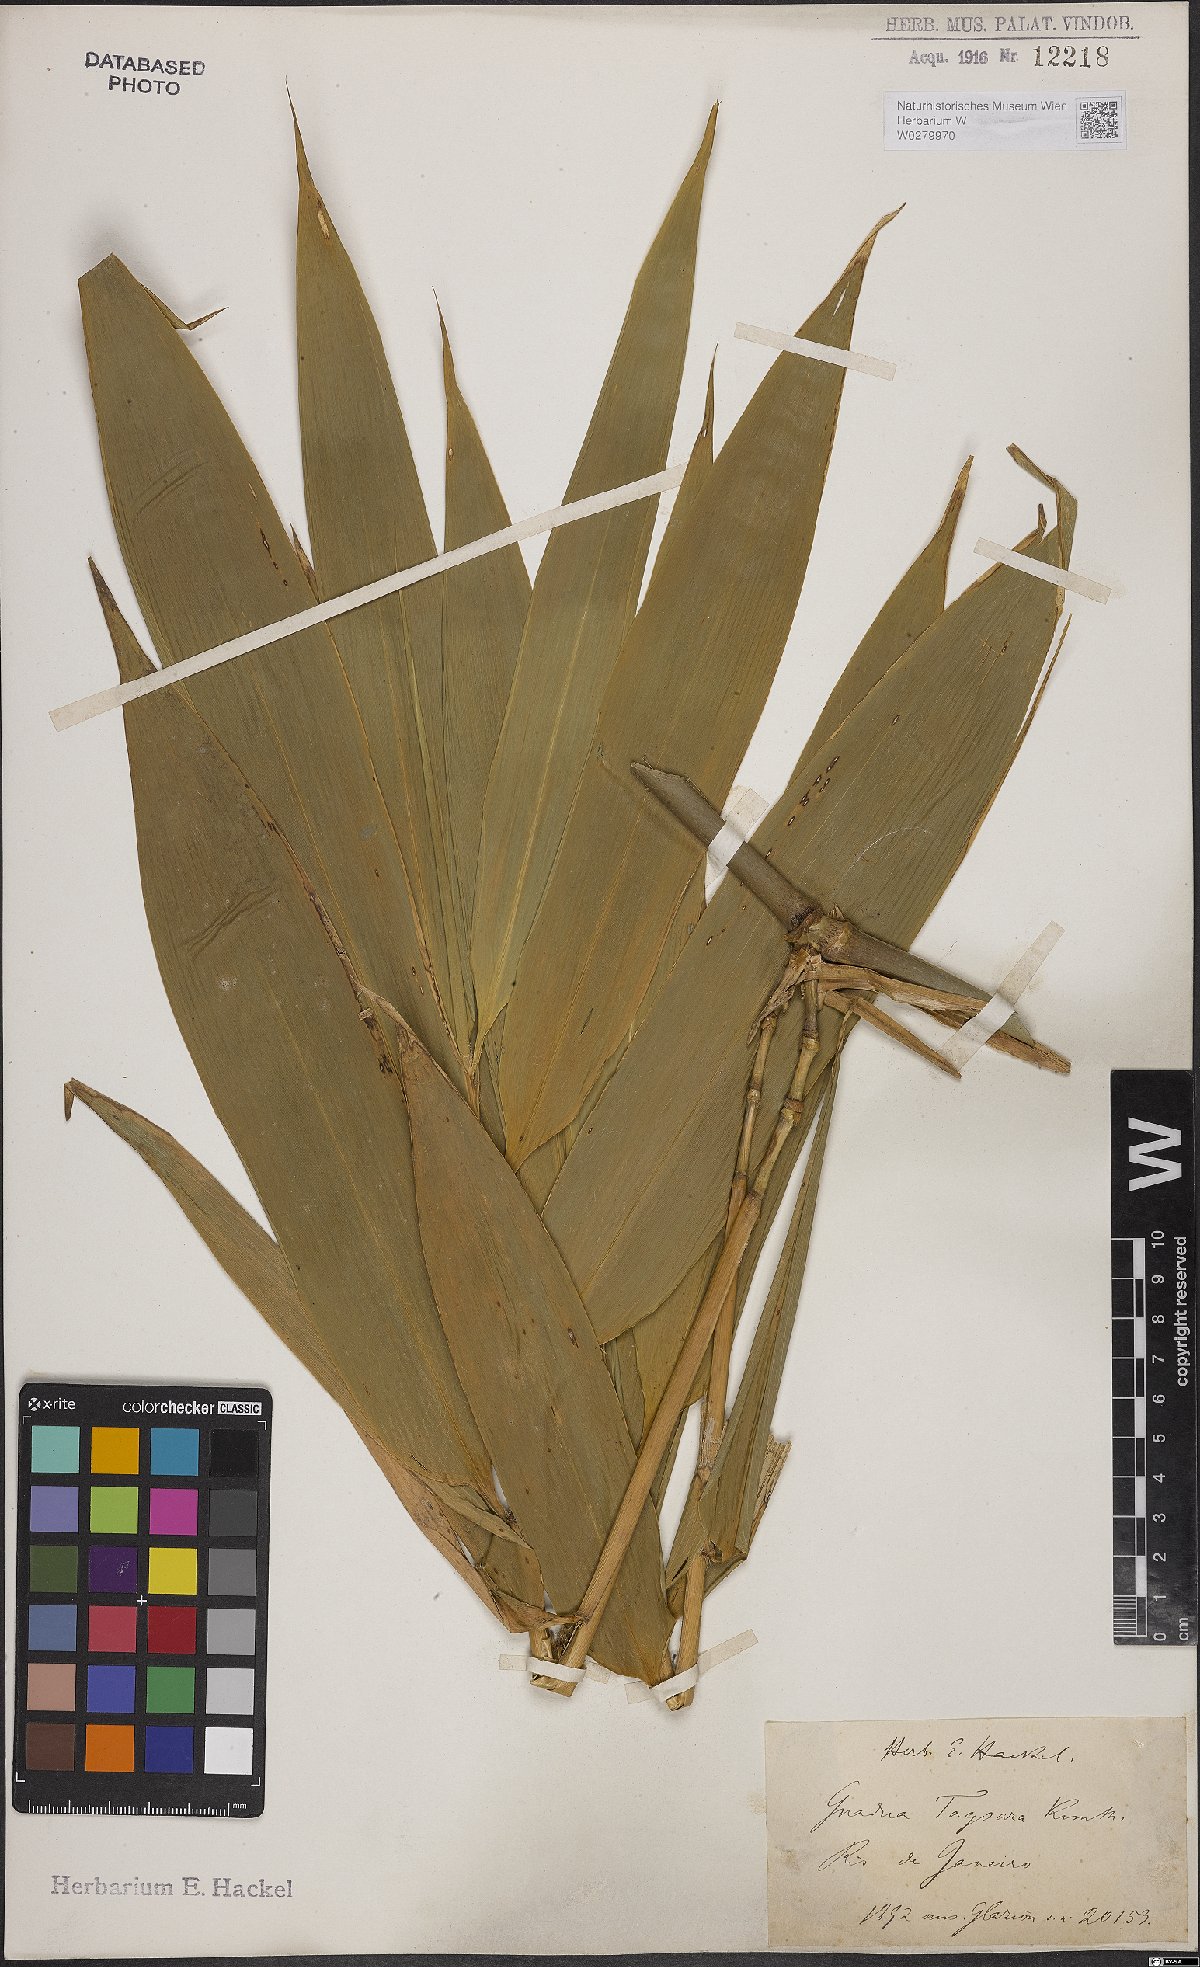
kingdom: Plantae
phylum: Tracheophyta
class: Liliopsida
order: Poales
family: Poaceae
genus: Guadua
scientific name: Guadua tagoara
